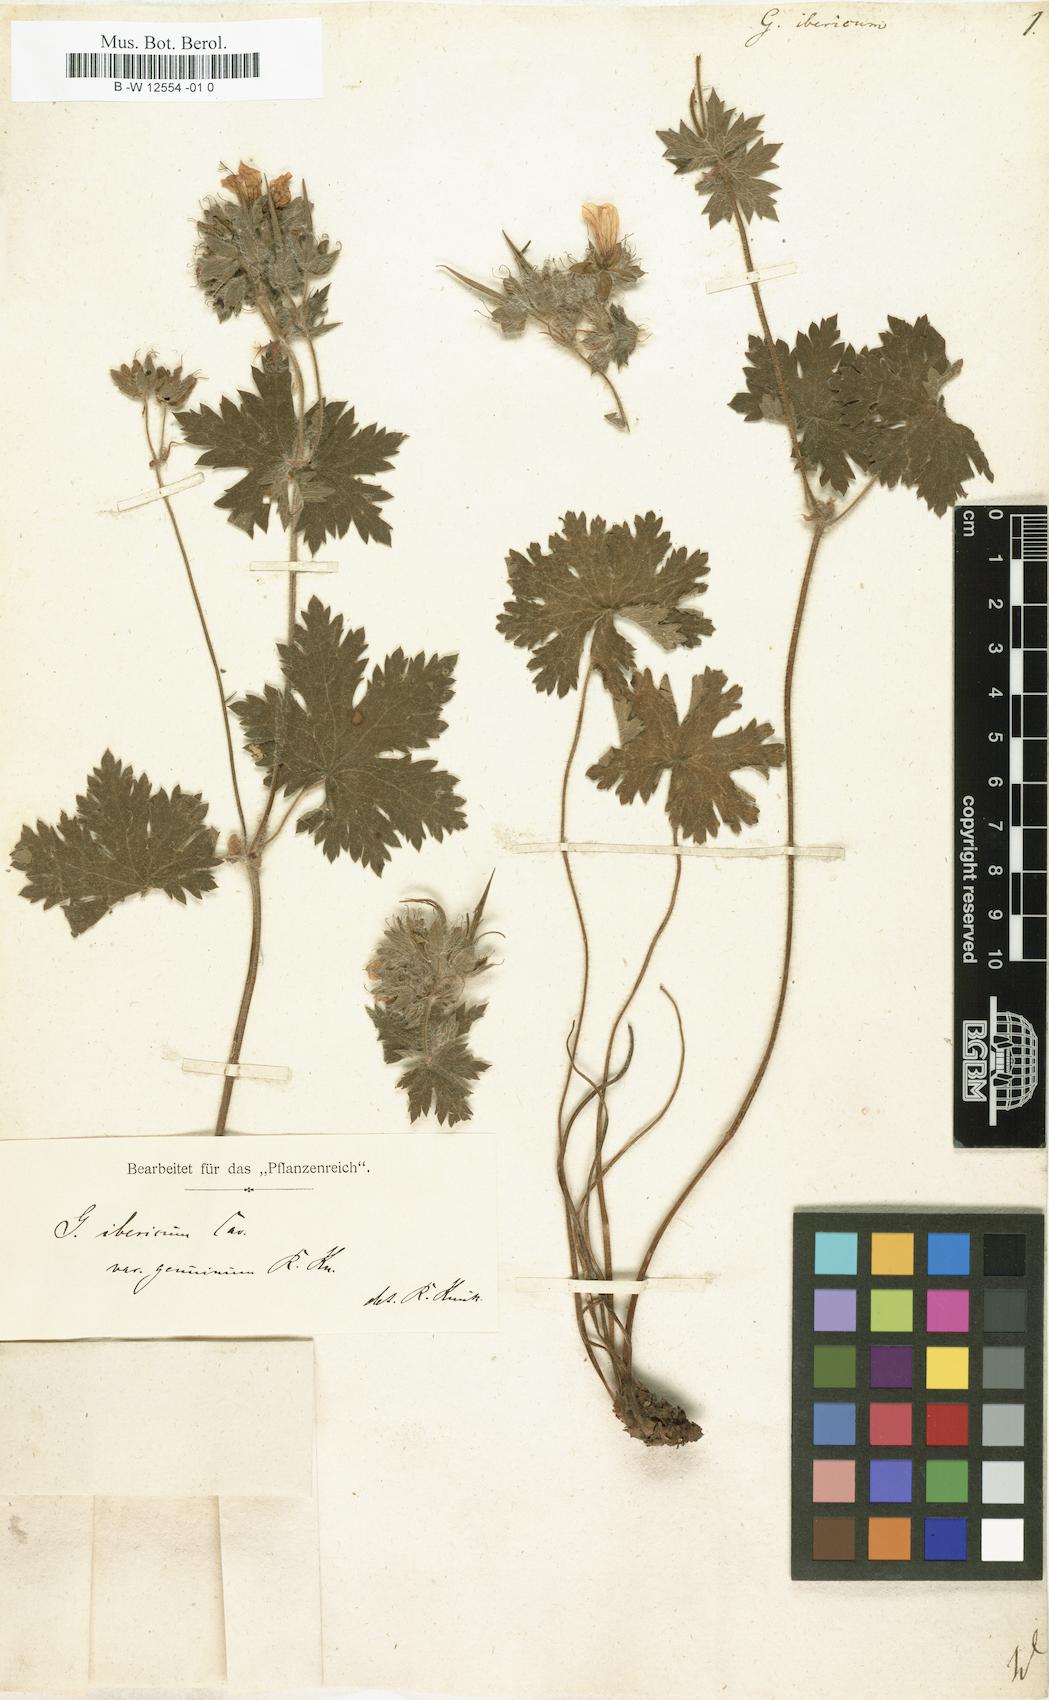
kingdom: Plantae
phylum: Tracheophyta
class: Magnoliopsida
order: Geraniales
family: Geraniaceae
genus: Geranium
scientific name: Geranium ibericum
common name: Caucasian crane's-bill
